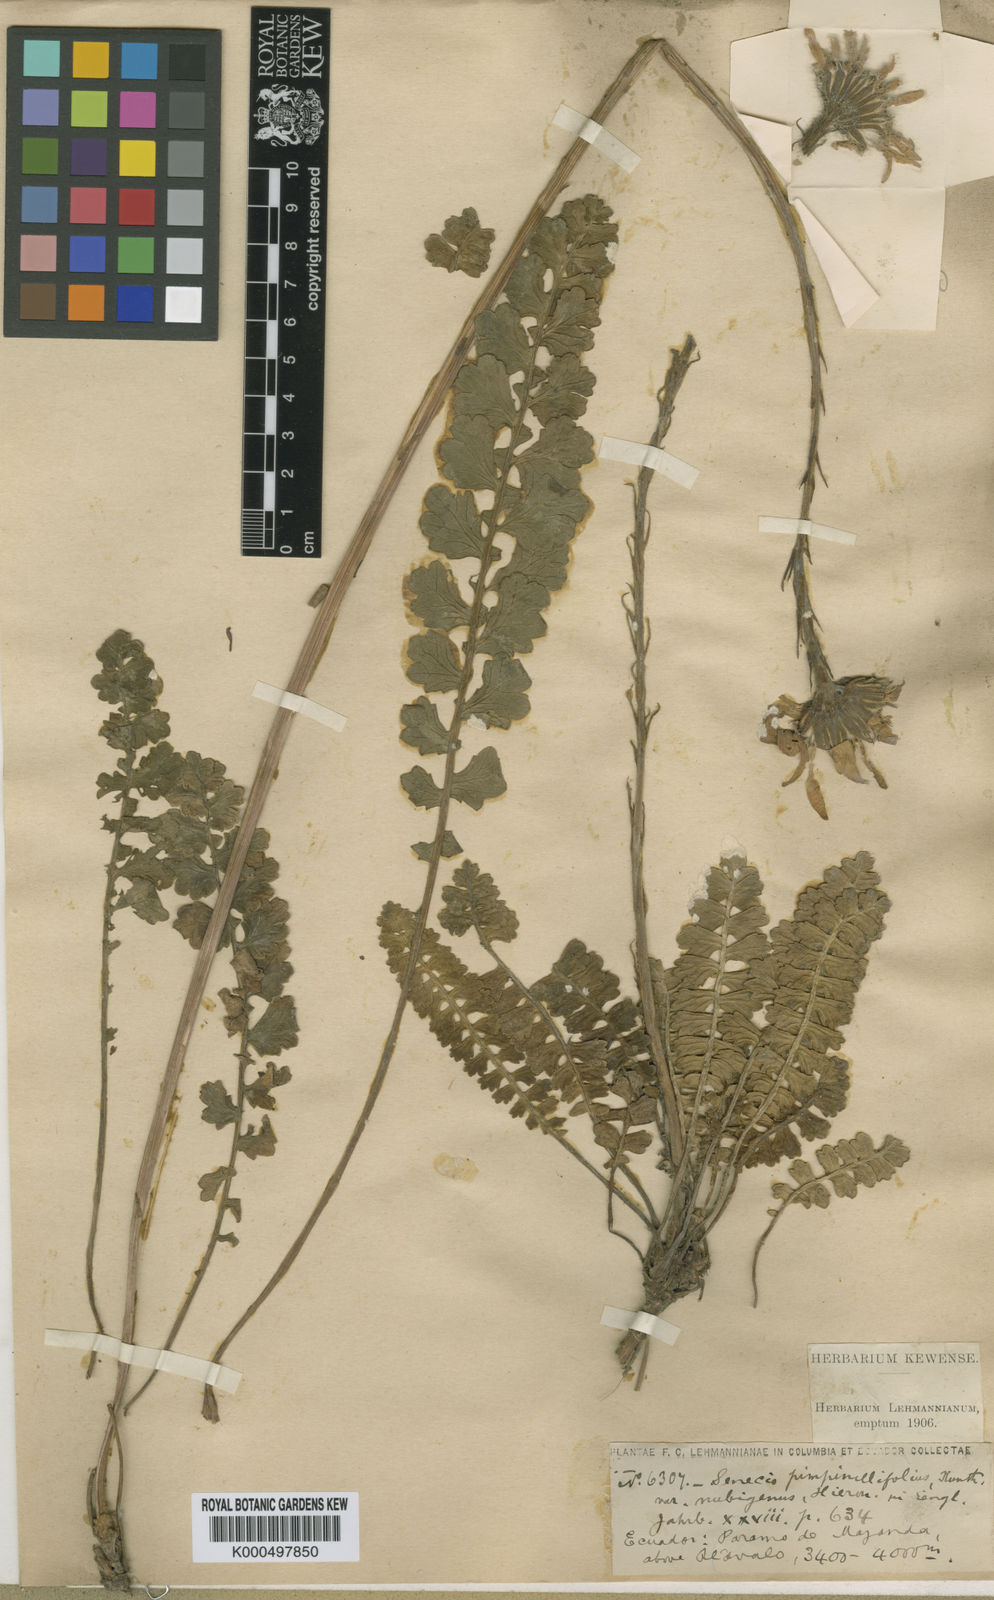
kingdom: Plantae
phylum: Tracheophyta
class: Magnoliopsida
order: Asterales
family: Asteraceae
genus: Dorobaea
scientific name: Dorobaea pimpinellifolia
